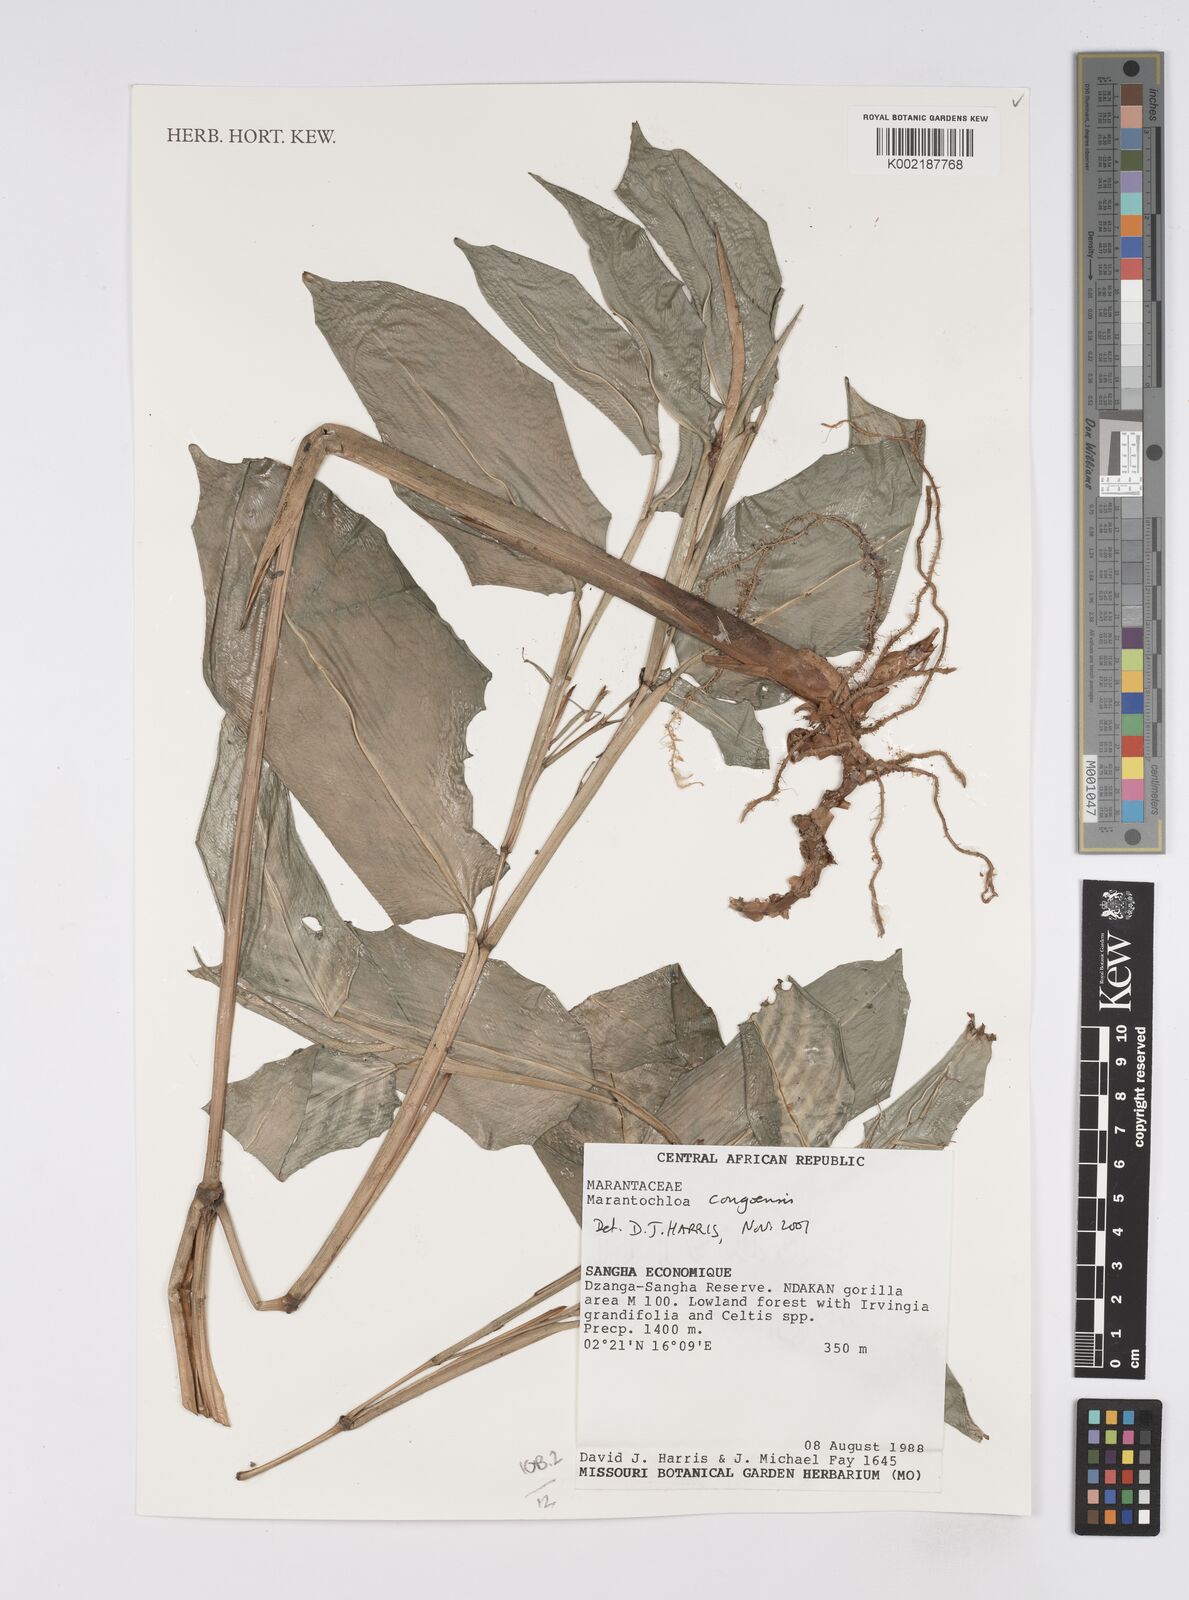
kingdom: Plantae
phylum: Tracheophyta
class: Liliopsida
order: Zingiberales
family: Marantaceae
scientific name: Marantaceae
